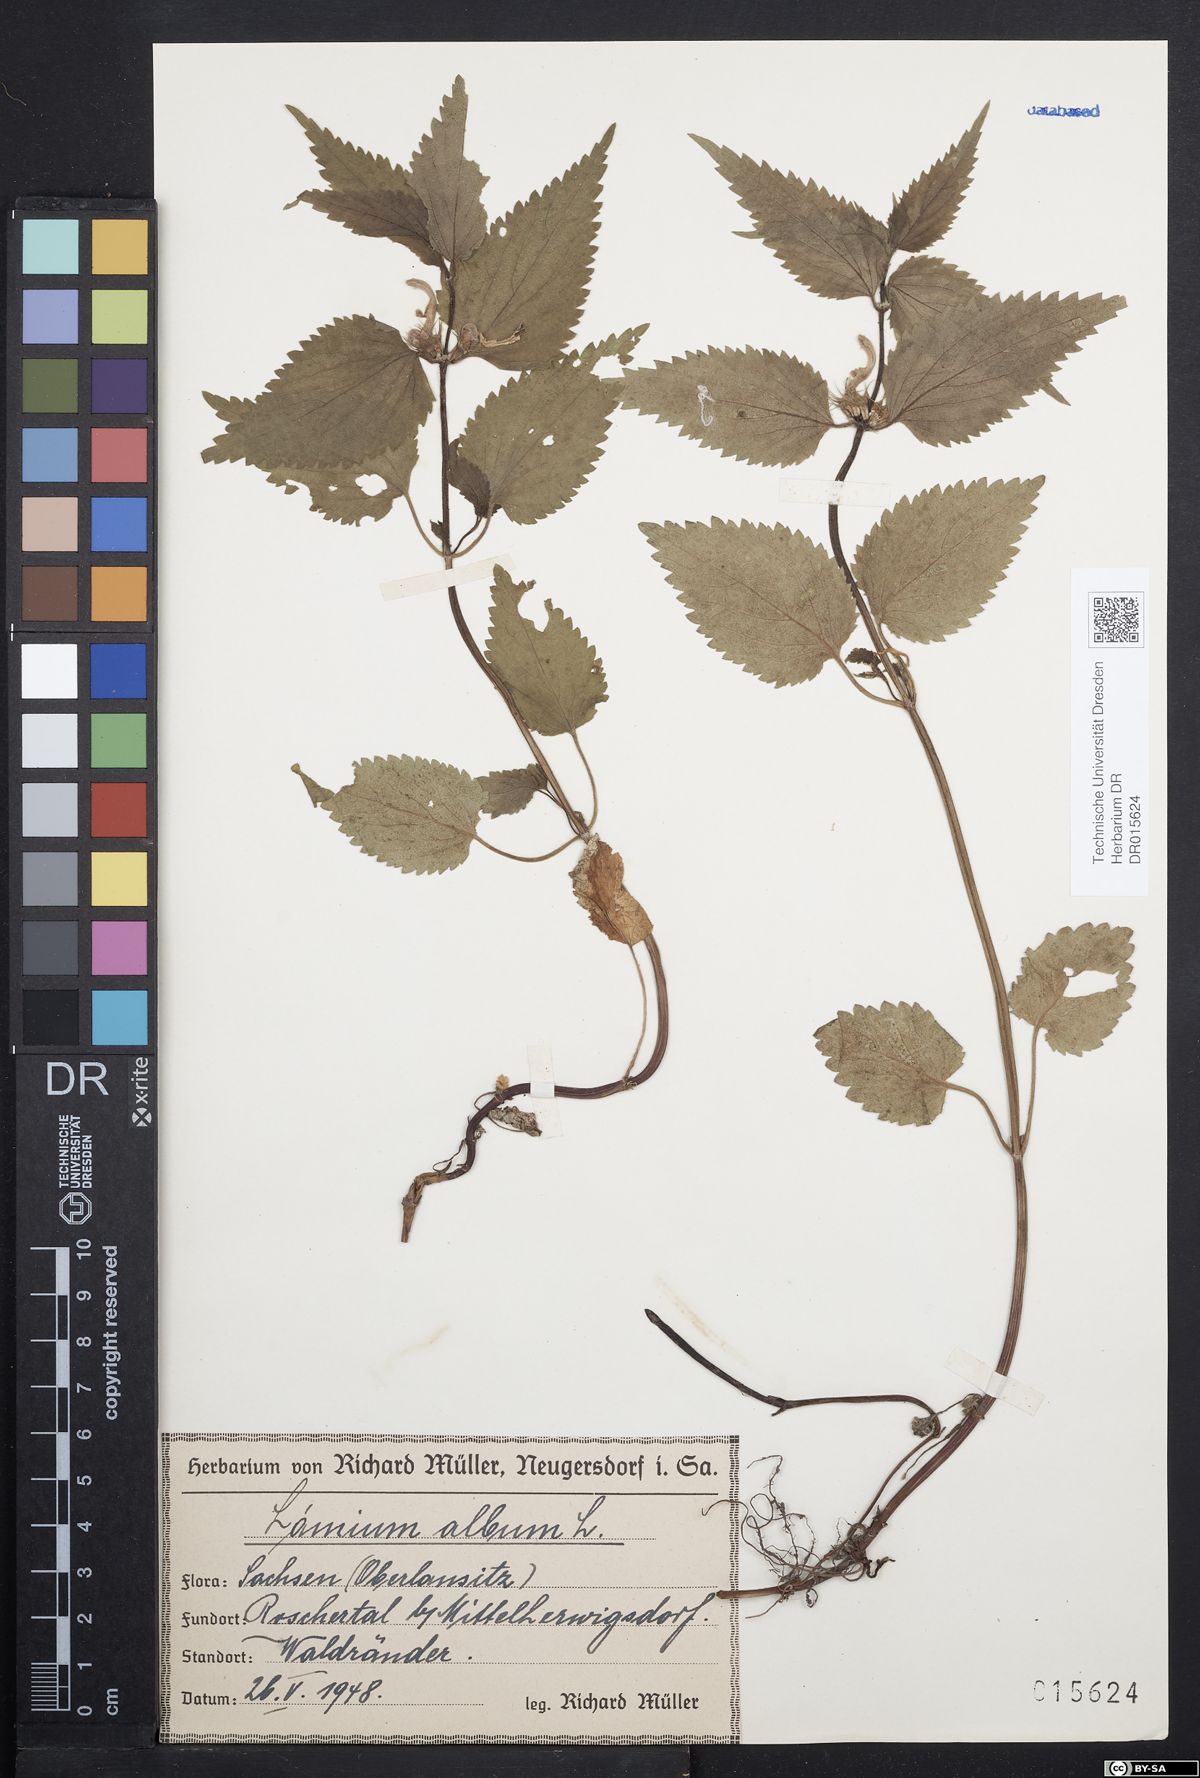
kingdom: Plantae
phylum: Tracheophyta
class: Magnoliopsida
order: Lamiales
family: Lamiaceae
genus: Lamium
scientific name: Lamium album
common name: White dead-nettle
